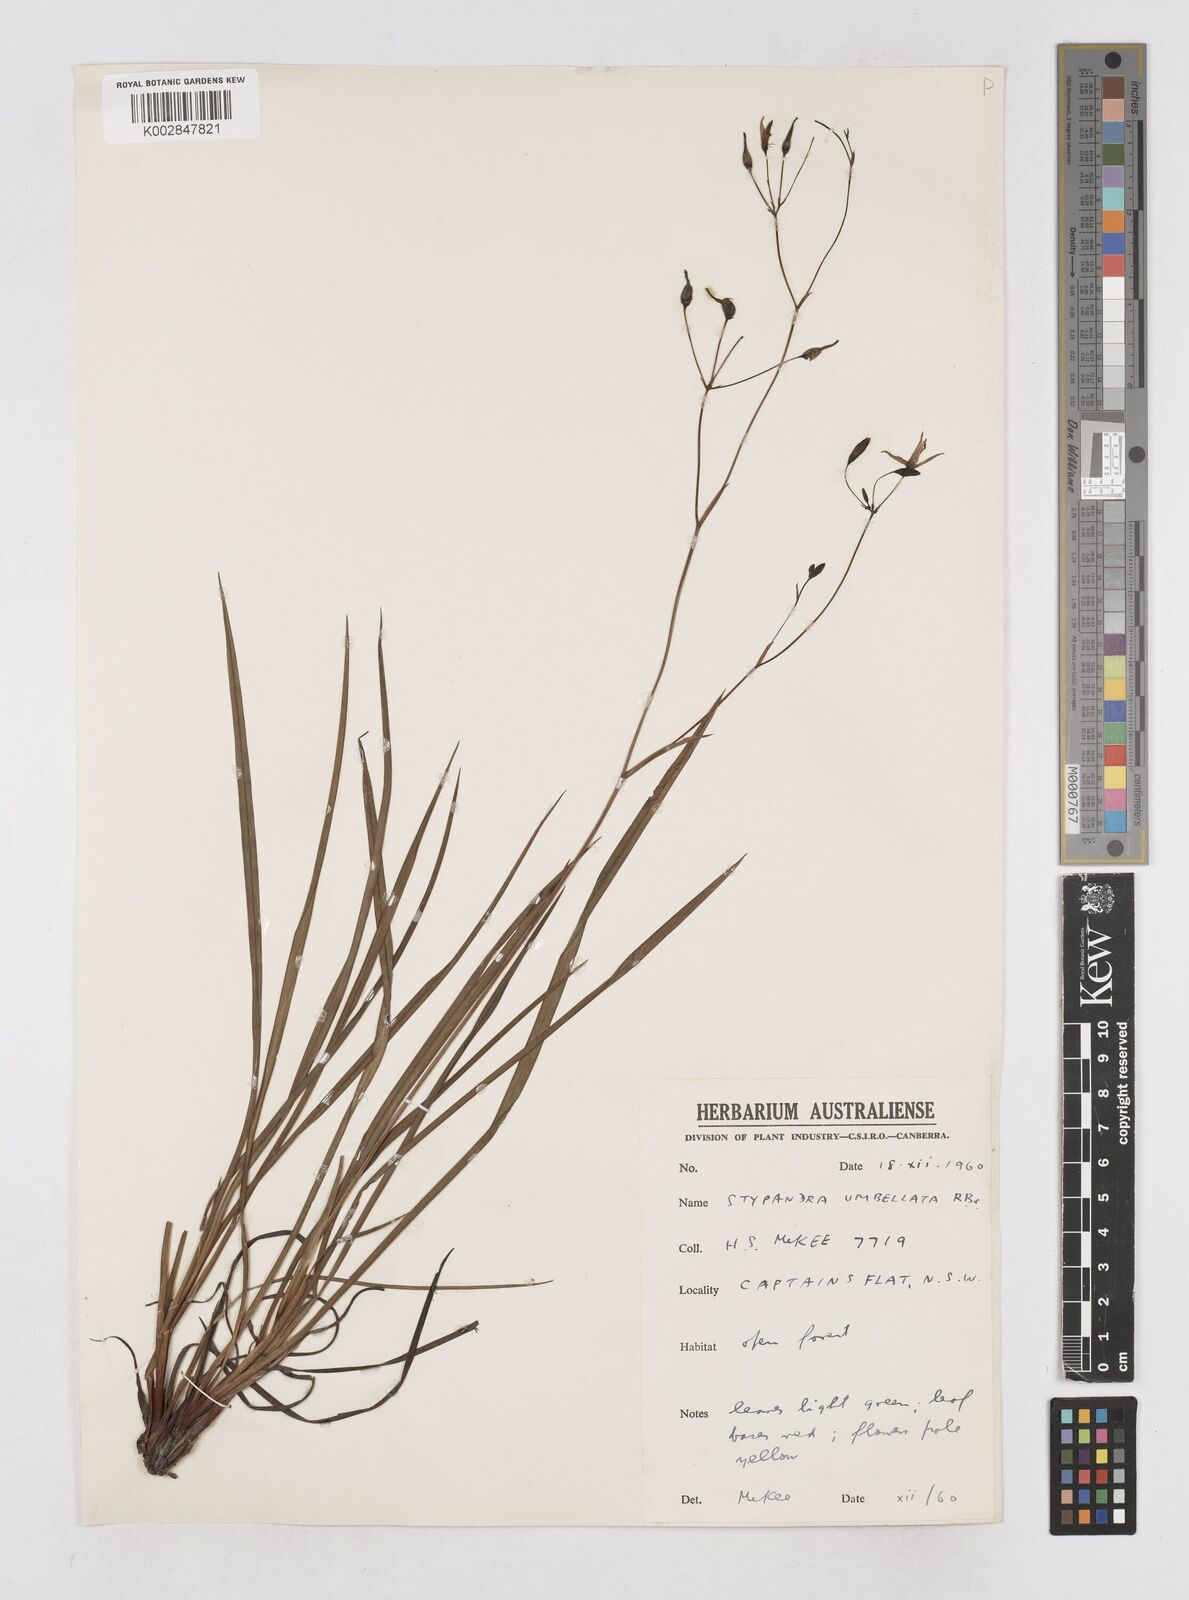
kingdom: Plantae
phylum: Tracheophyta
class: Liliopsida
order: Asparagales
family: Asphodelaceae
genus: Thelionema
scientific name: Thelionema umbellatum
